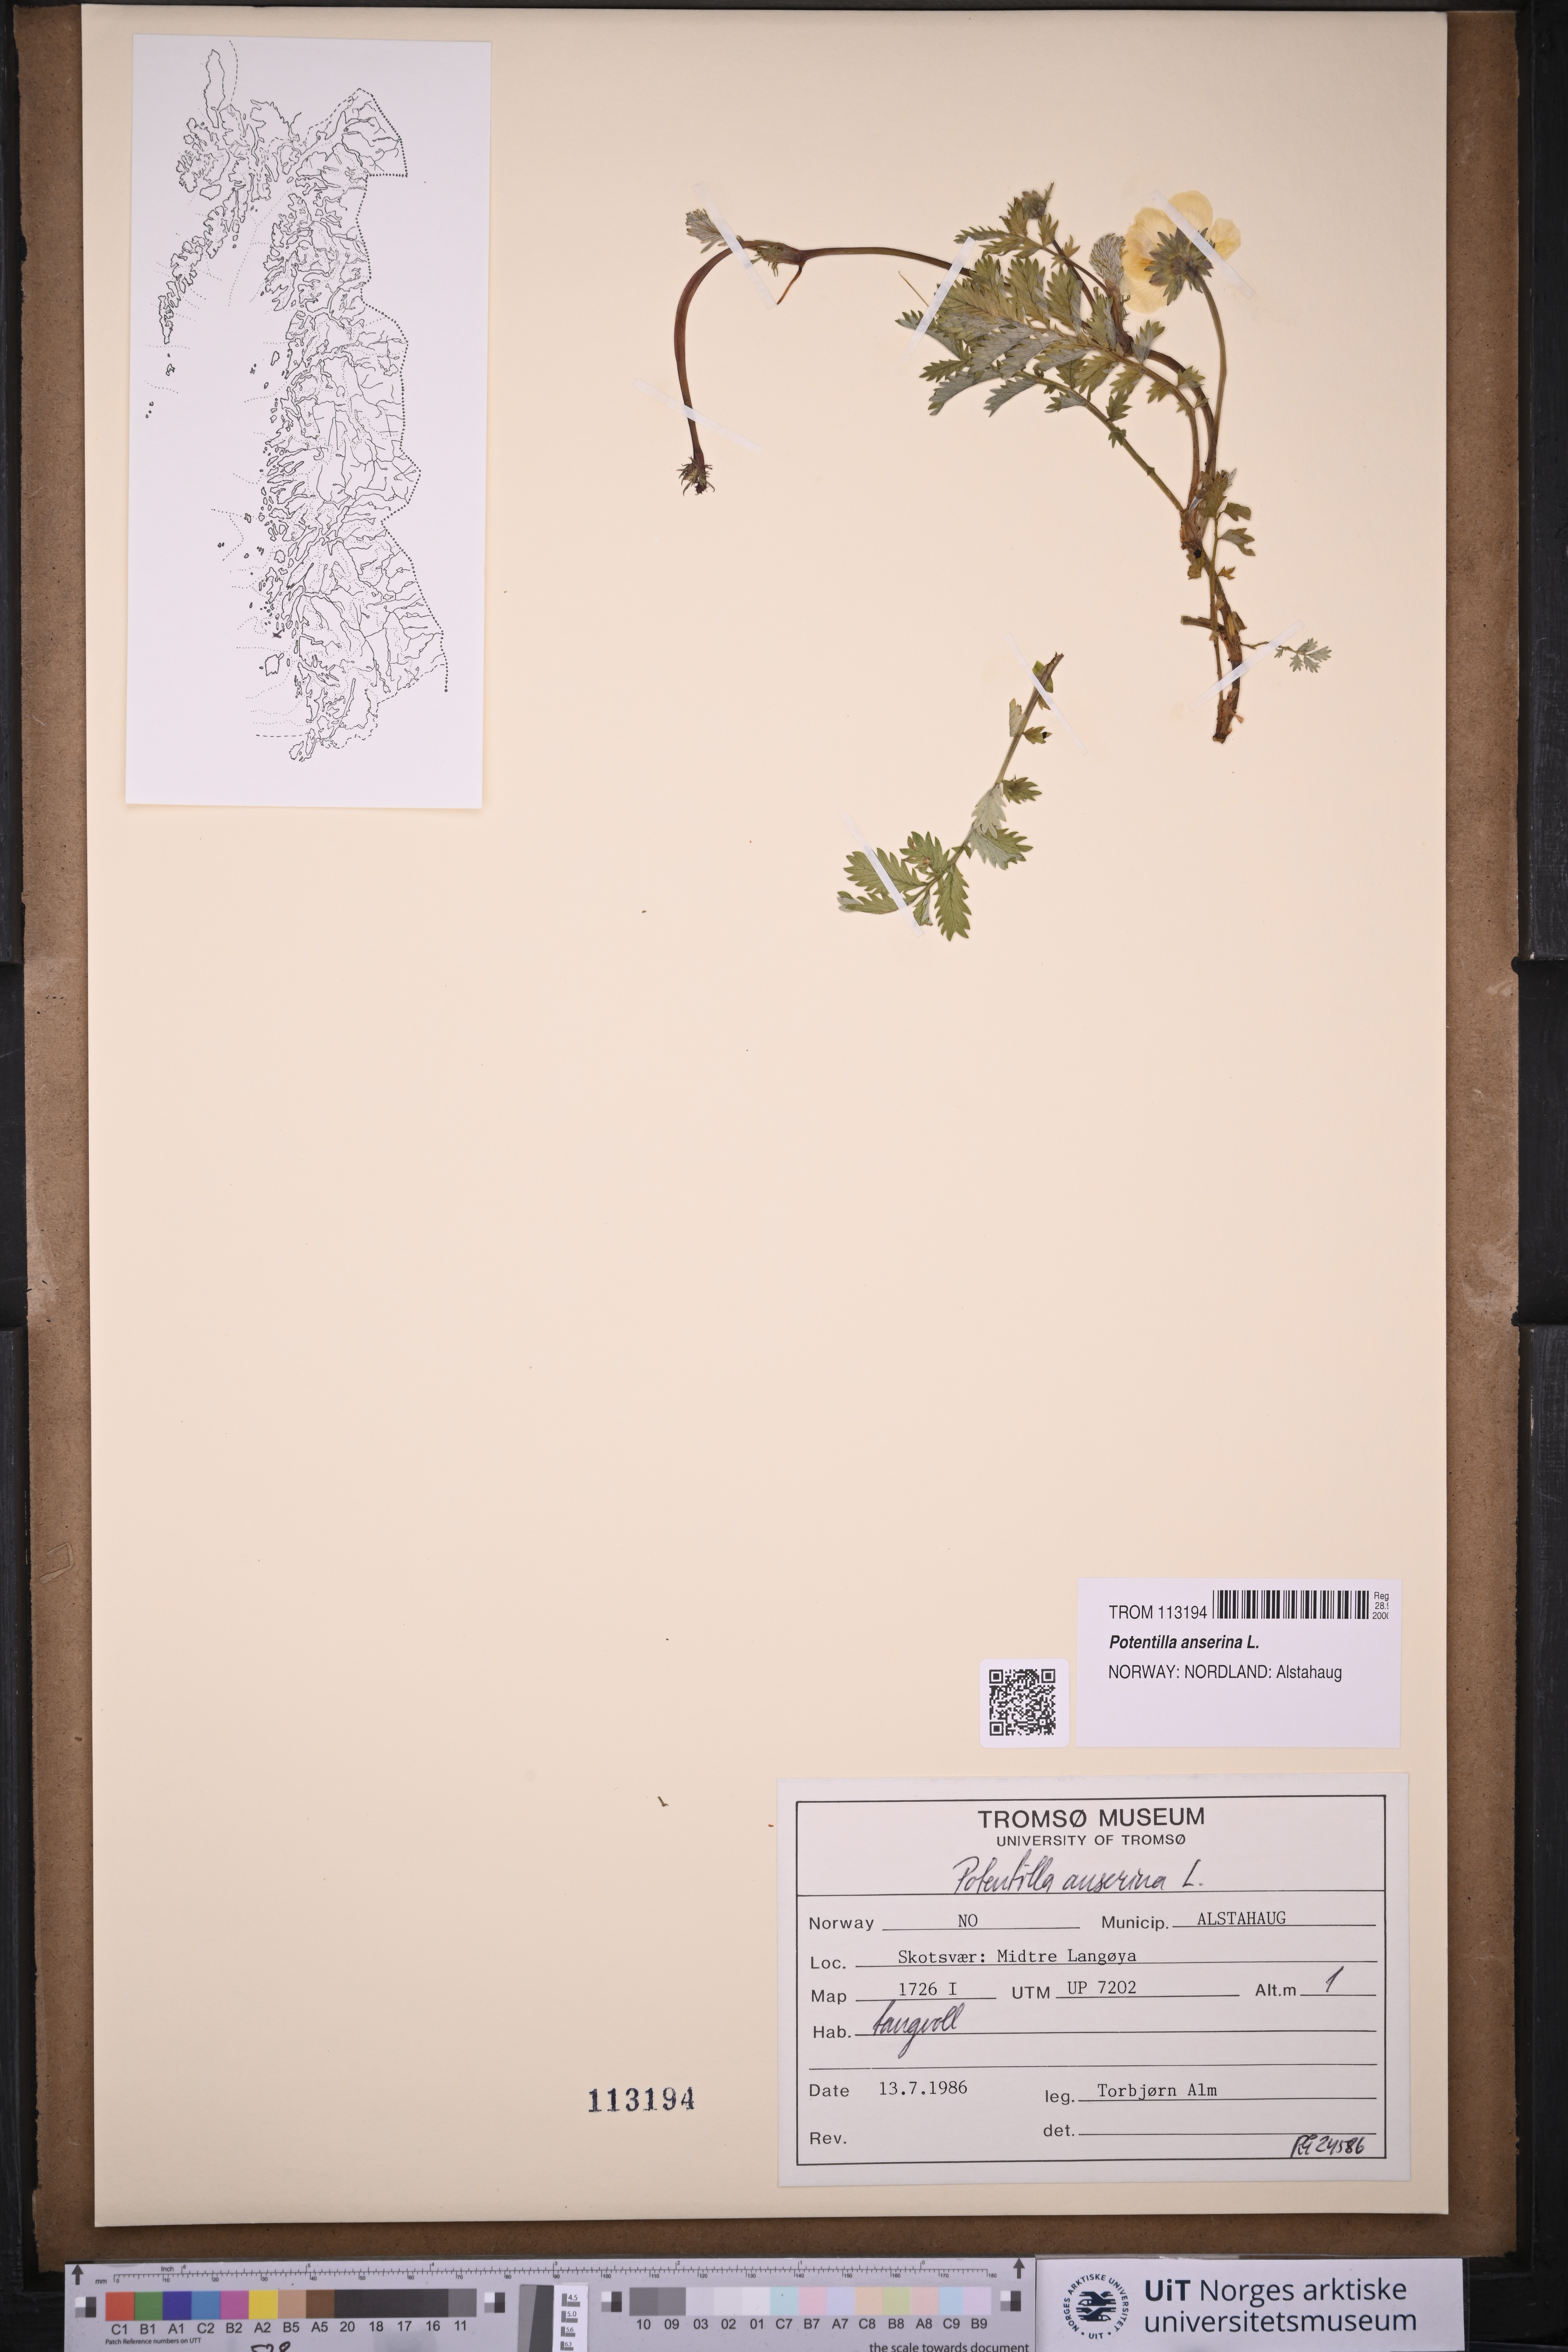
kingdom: Plantae
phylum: Tracheophyta
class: Magnoliopsida
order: Rosales
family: Rosaceae
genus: Argentina
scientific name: Argentina anserina
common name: Common silverweed
